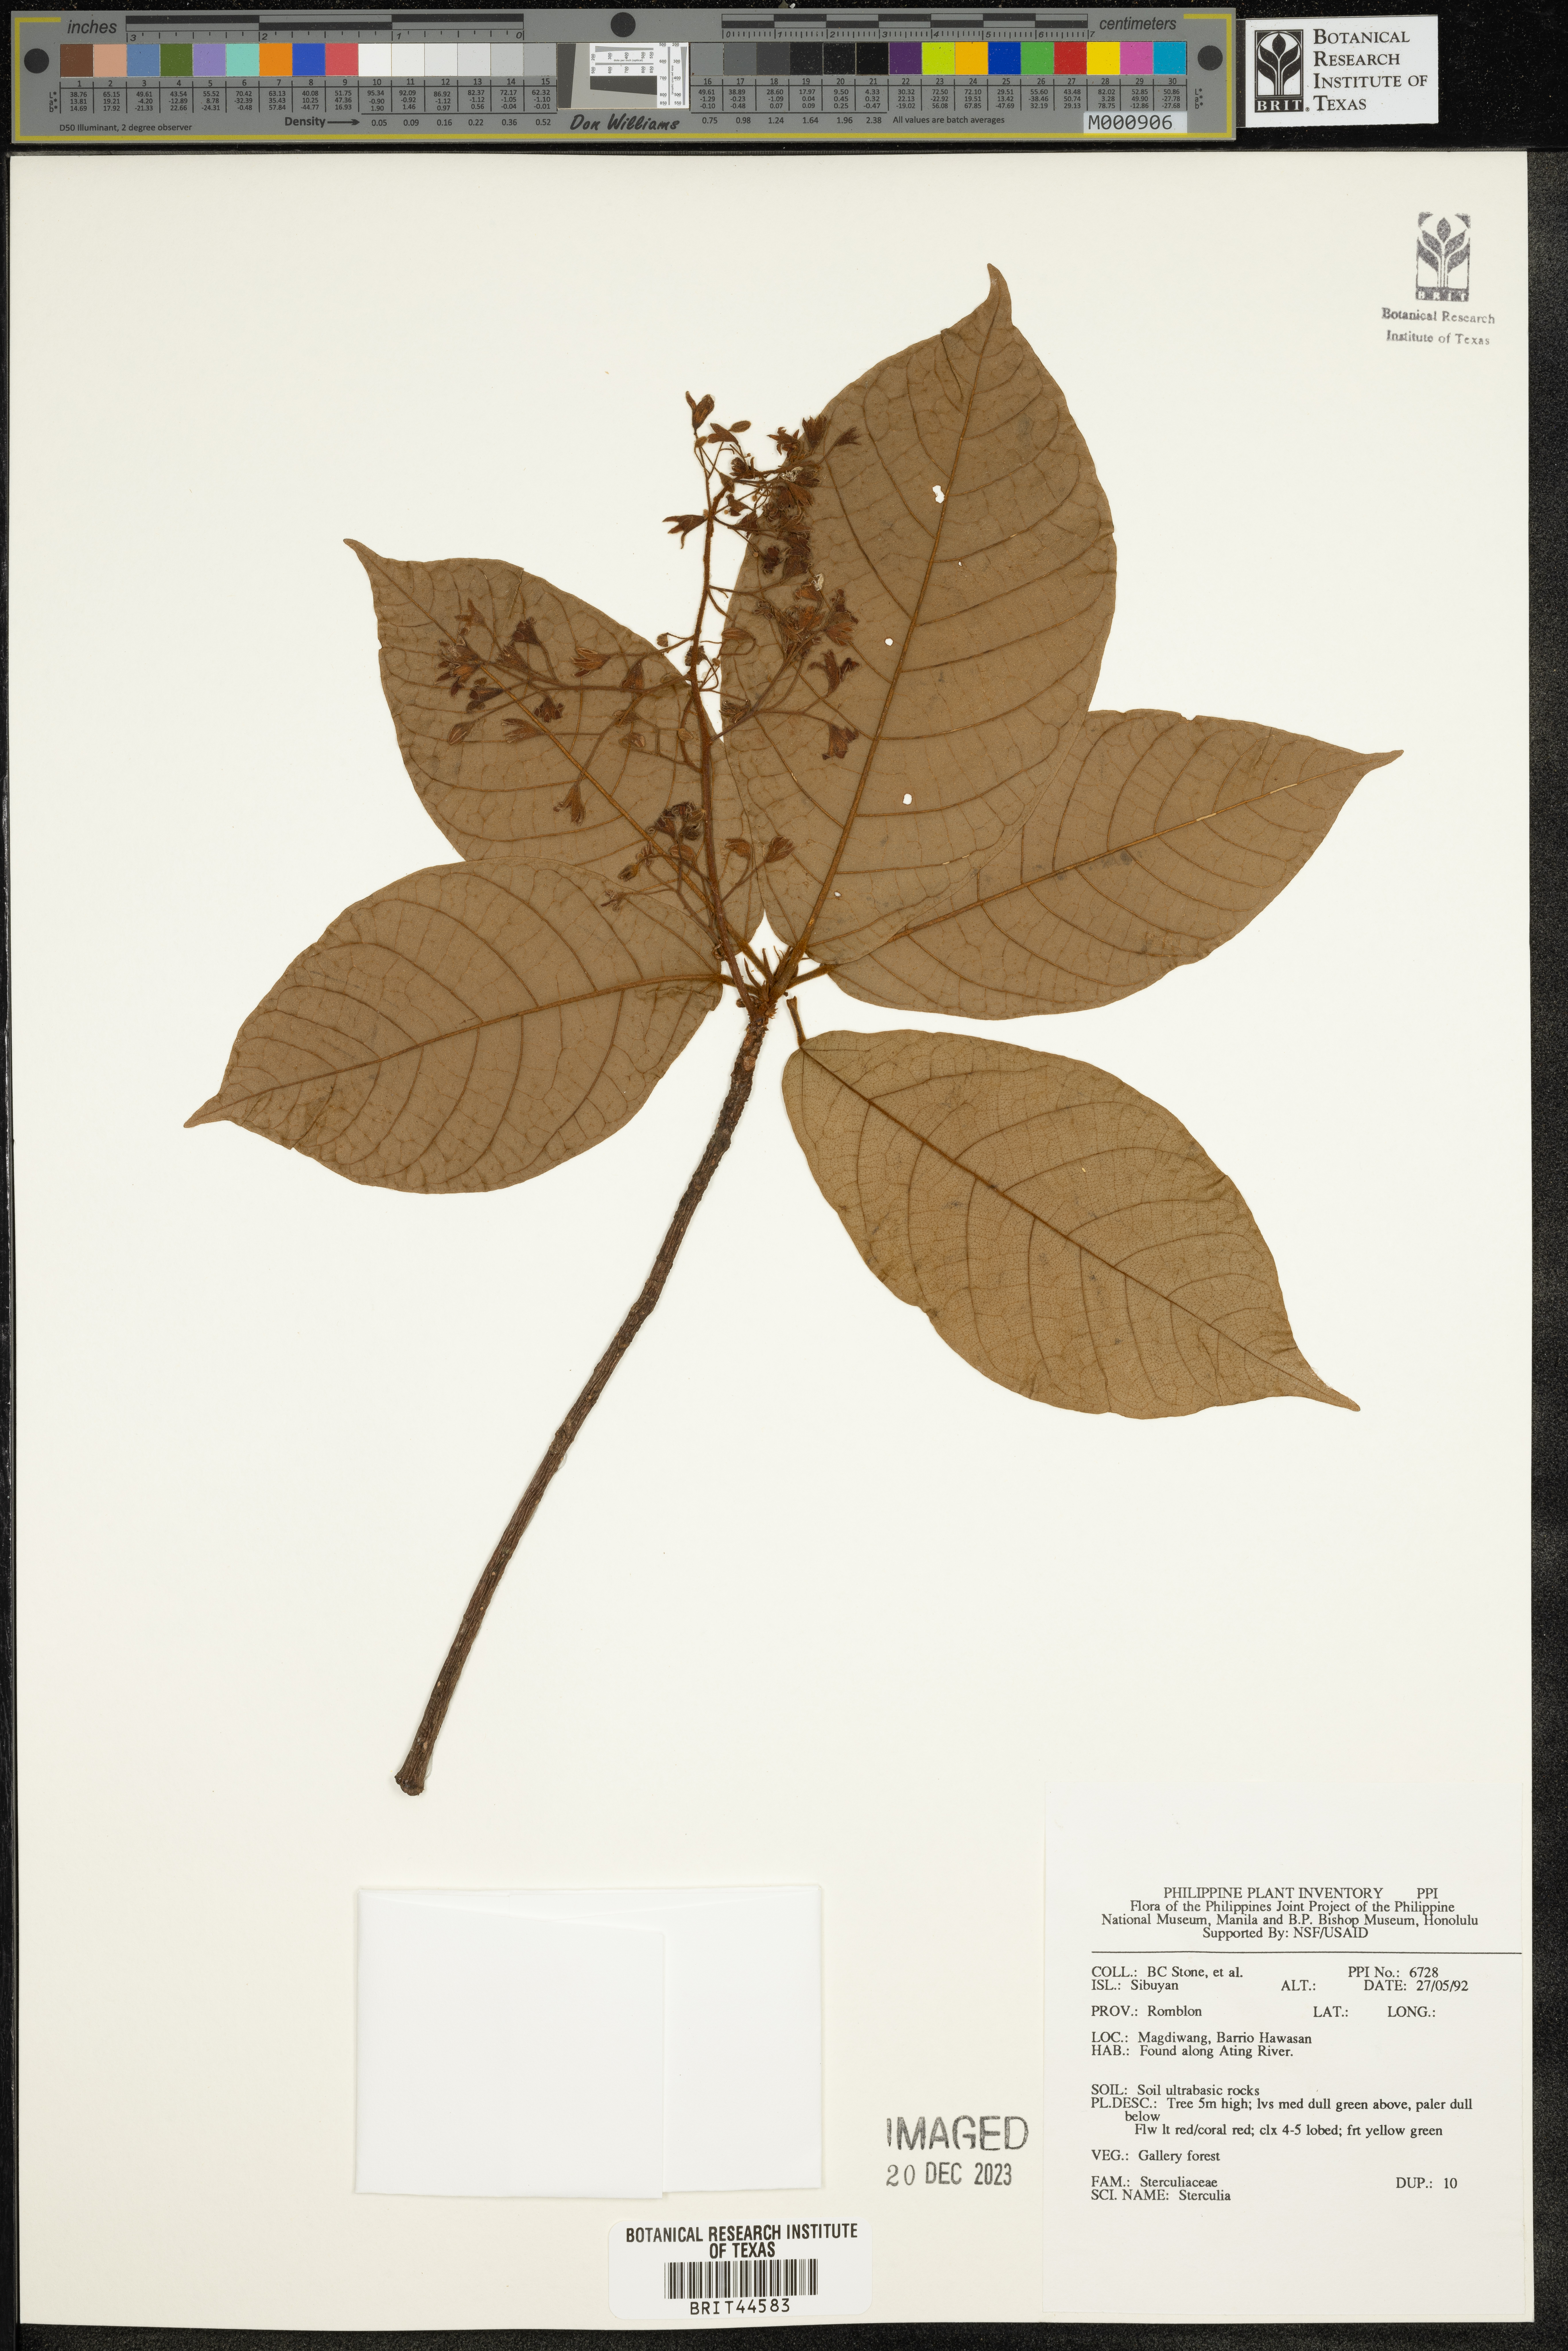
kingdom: Plantae
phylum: Tracheophyta
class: Magnoliopsida
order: Malvales
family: Malvaceae
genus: Sterculia
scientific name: Sterculia
